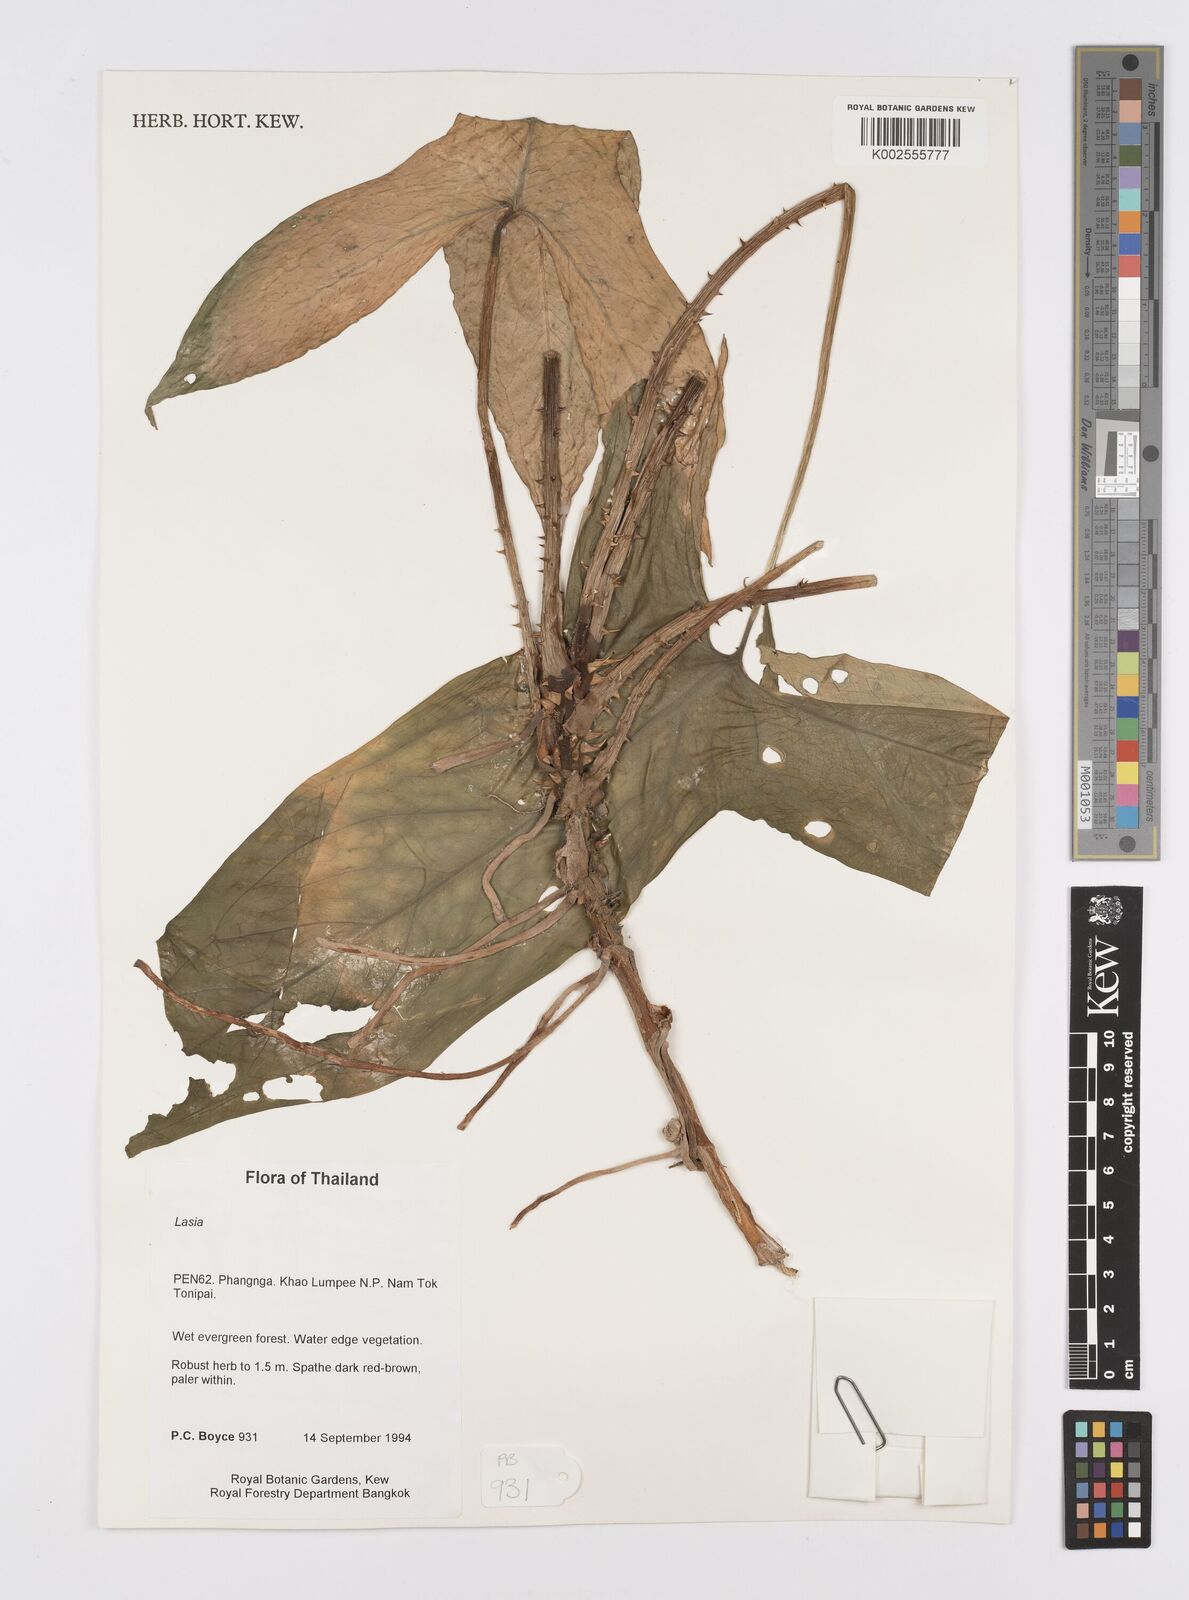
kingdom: Plantae
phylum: Tracheophyta
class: Liliopsida
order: Alismatales
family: Araceae
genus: Lasia
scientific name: Lasia spinosa
